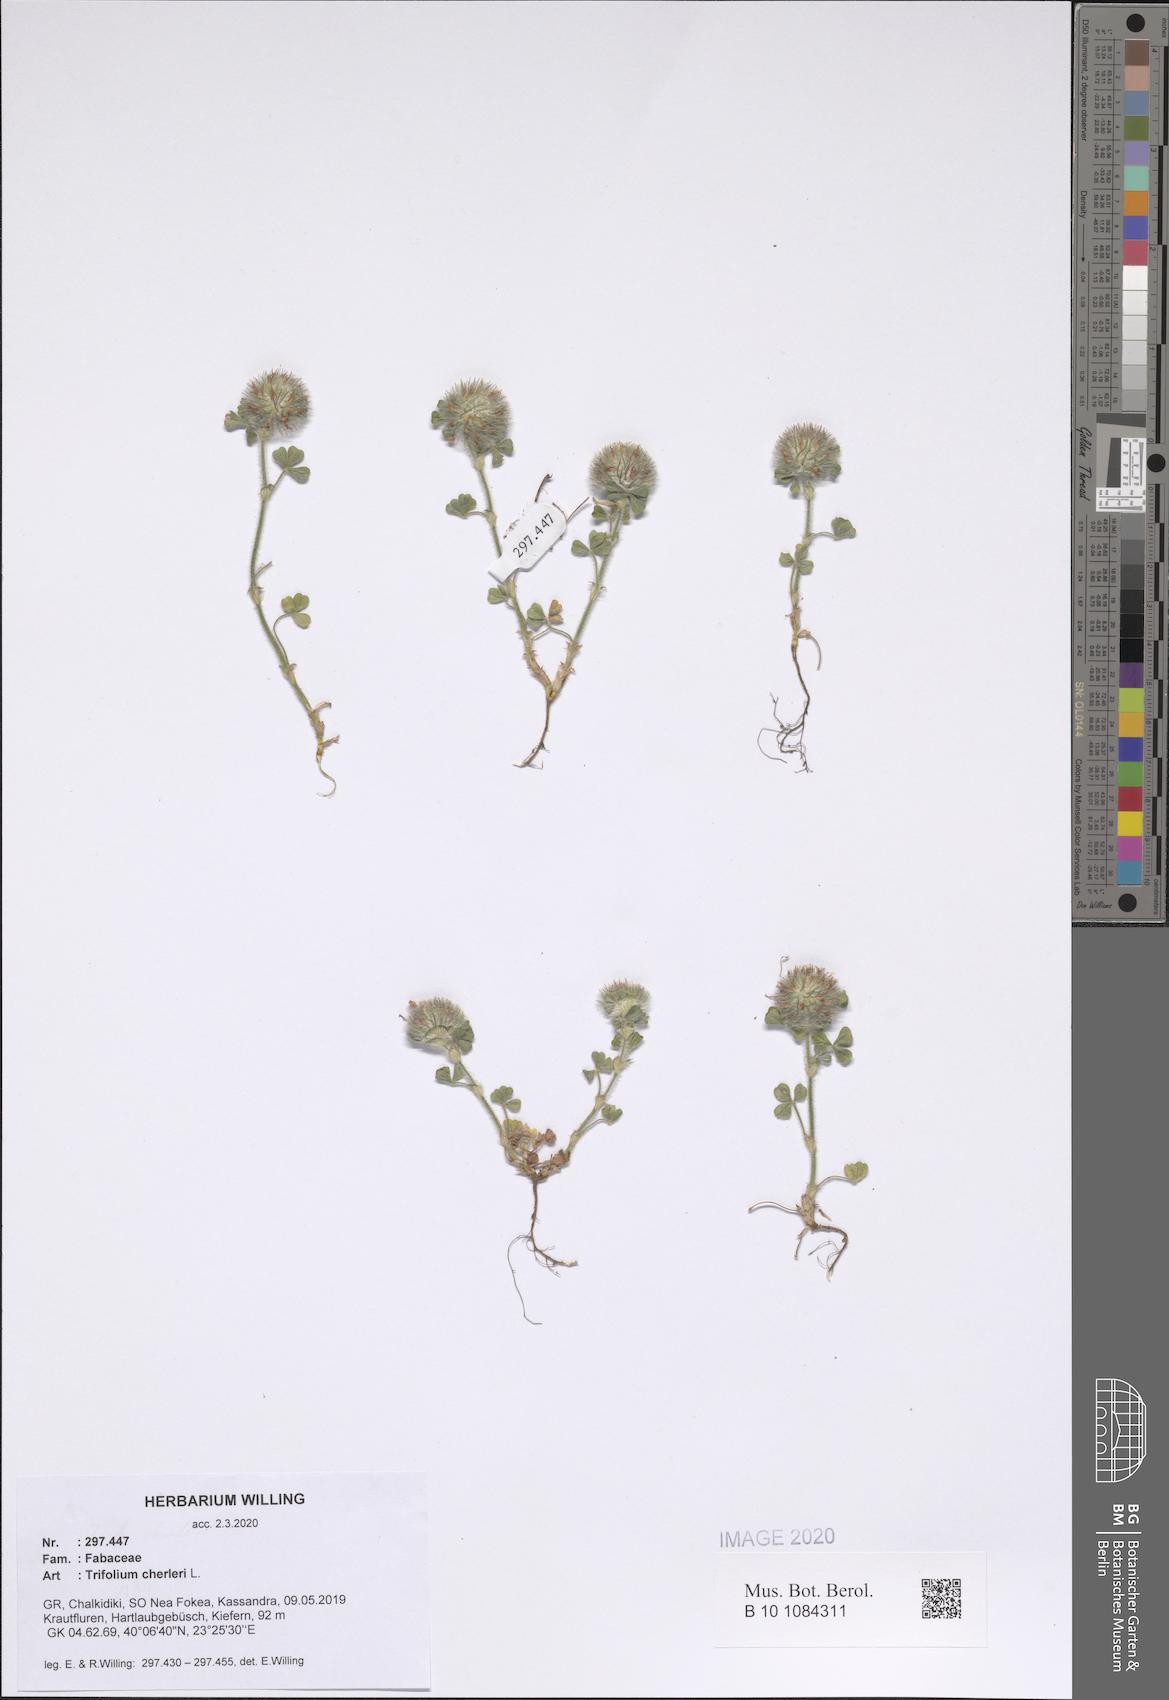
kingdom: Plantae
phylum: Tracheophyta
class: Magnoliopsida
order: Fabales
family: Fabaceae
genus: Trifolium
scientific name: Trifolium cherleri
